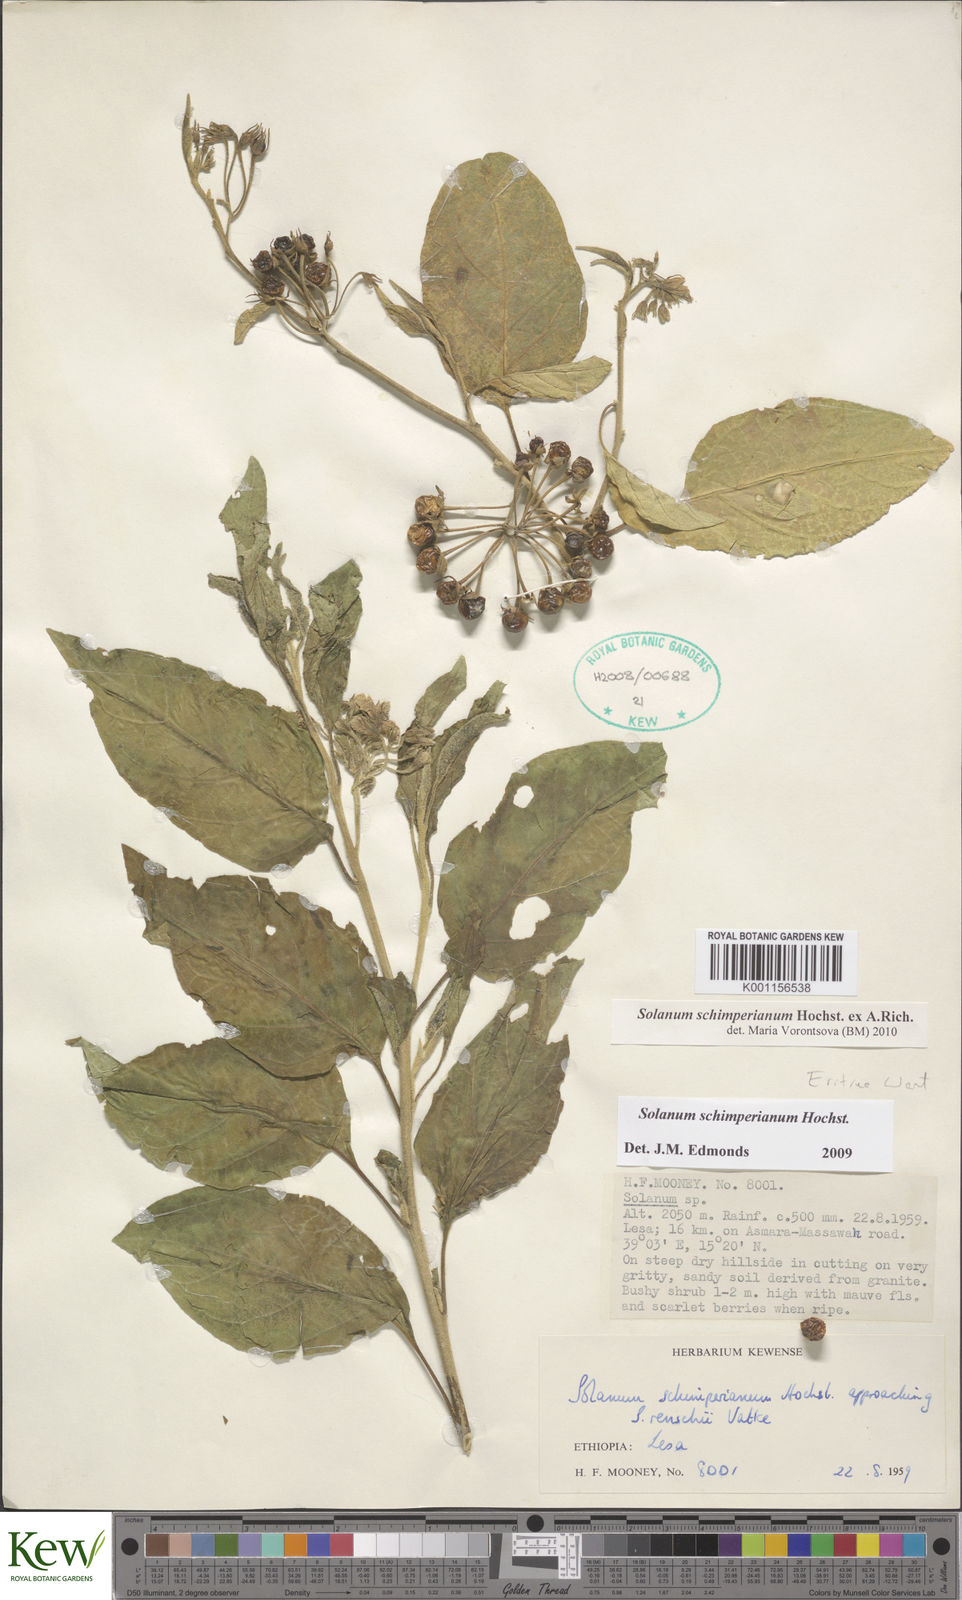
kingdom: Plantae
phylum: Tracheophyta
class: Magnoliopsida
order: Solanales
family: Solanaceae
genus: Solanum
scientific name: Solanum
